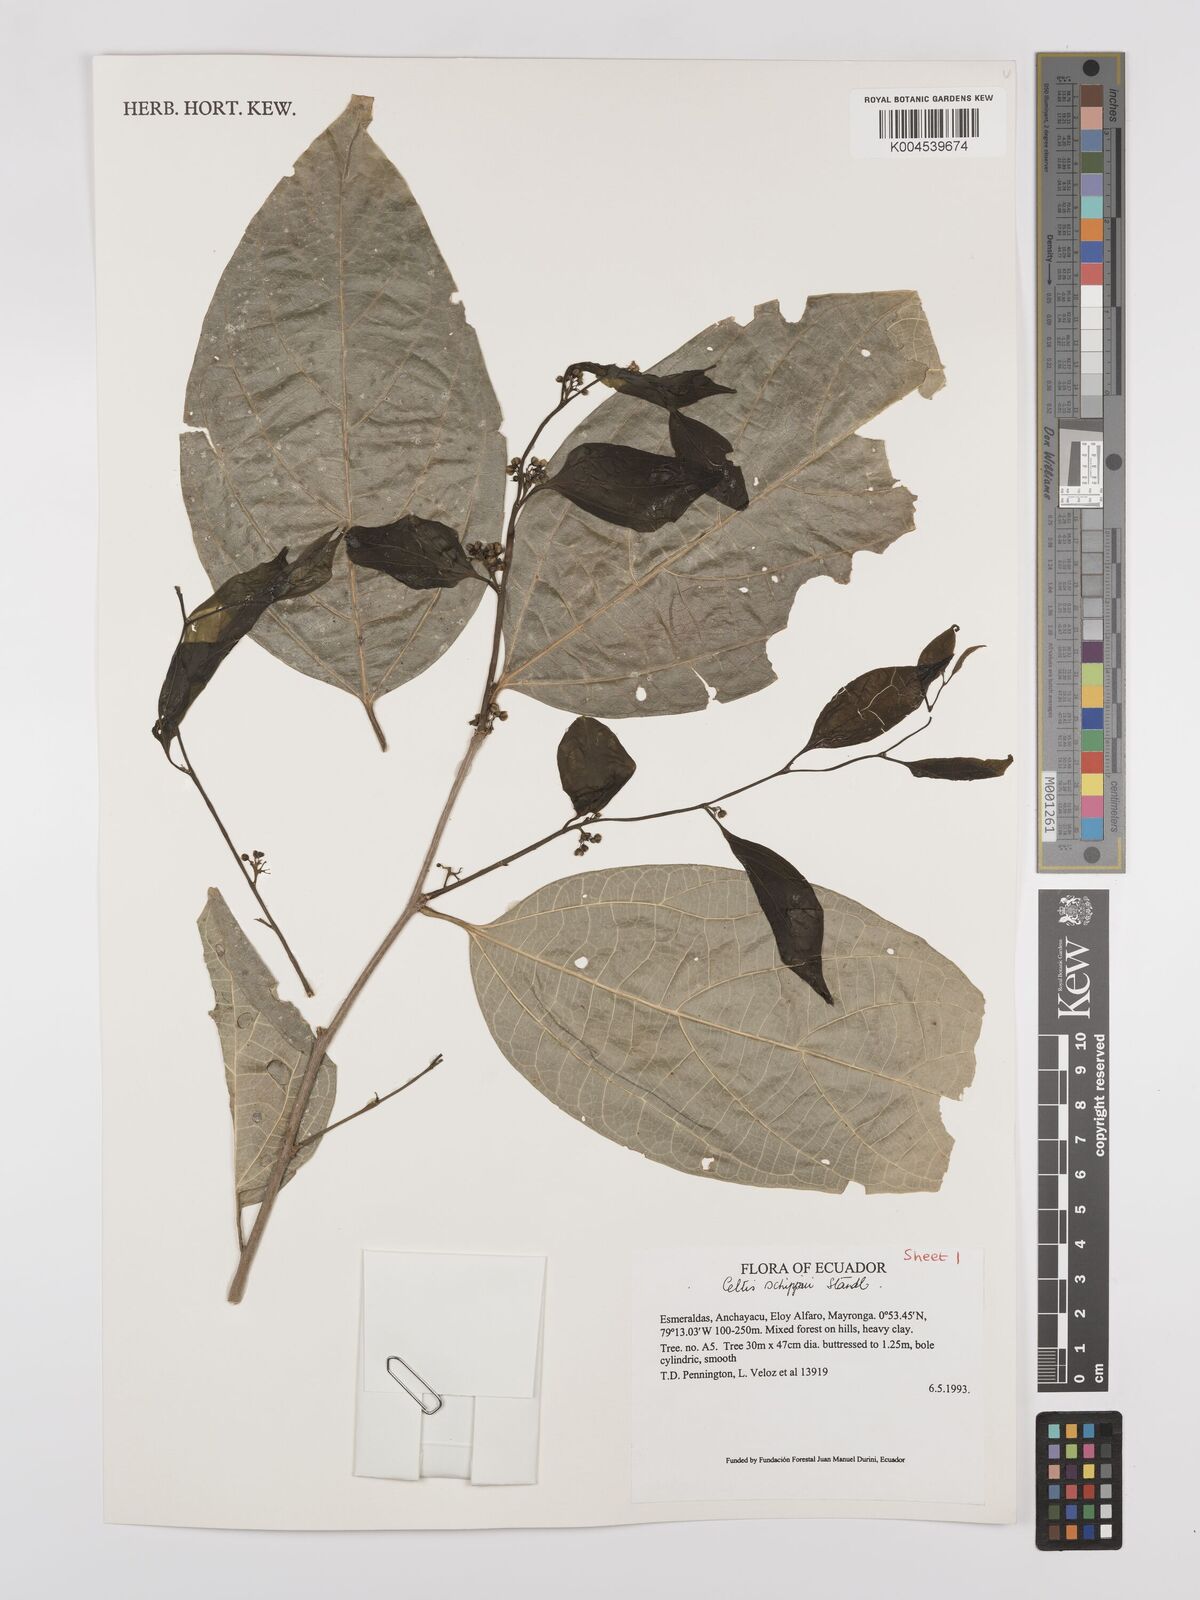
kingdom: Plantae
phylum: Tracheophyta
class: Magnoliopsida
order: Rosales
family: Cannabaceae
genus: Celtis
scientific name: Celtis schippii
